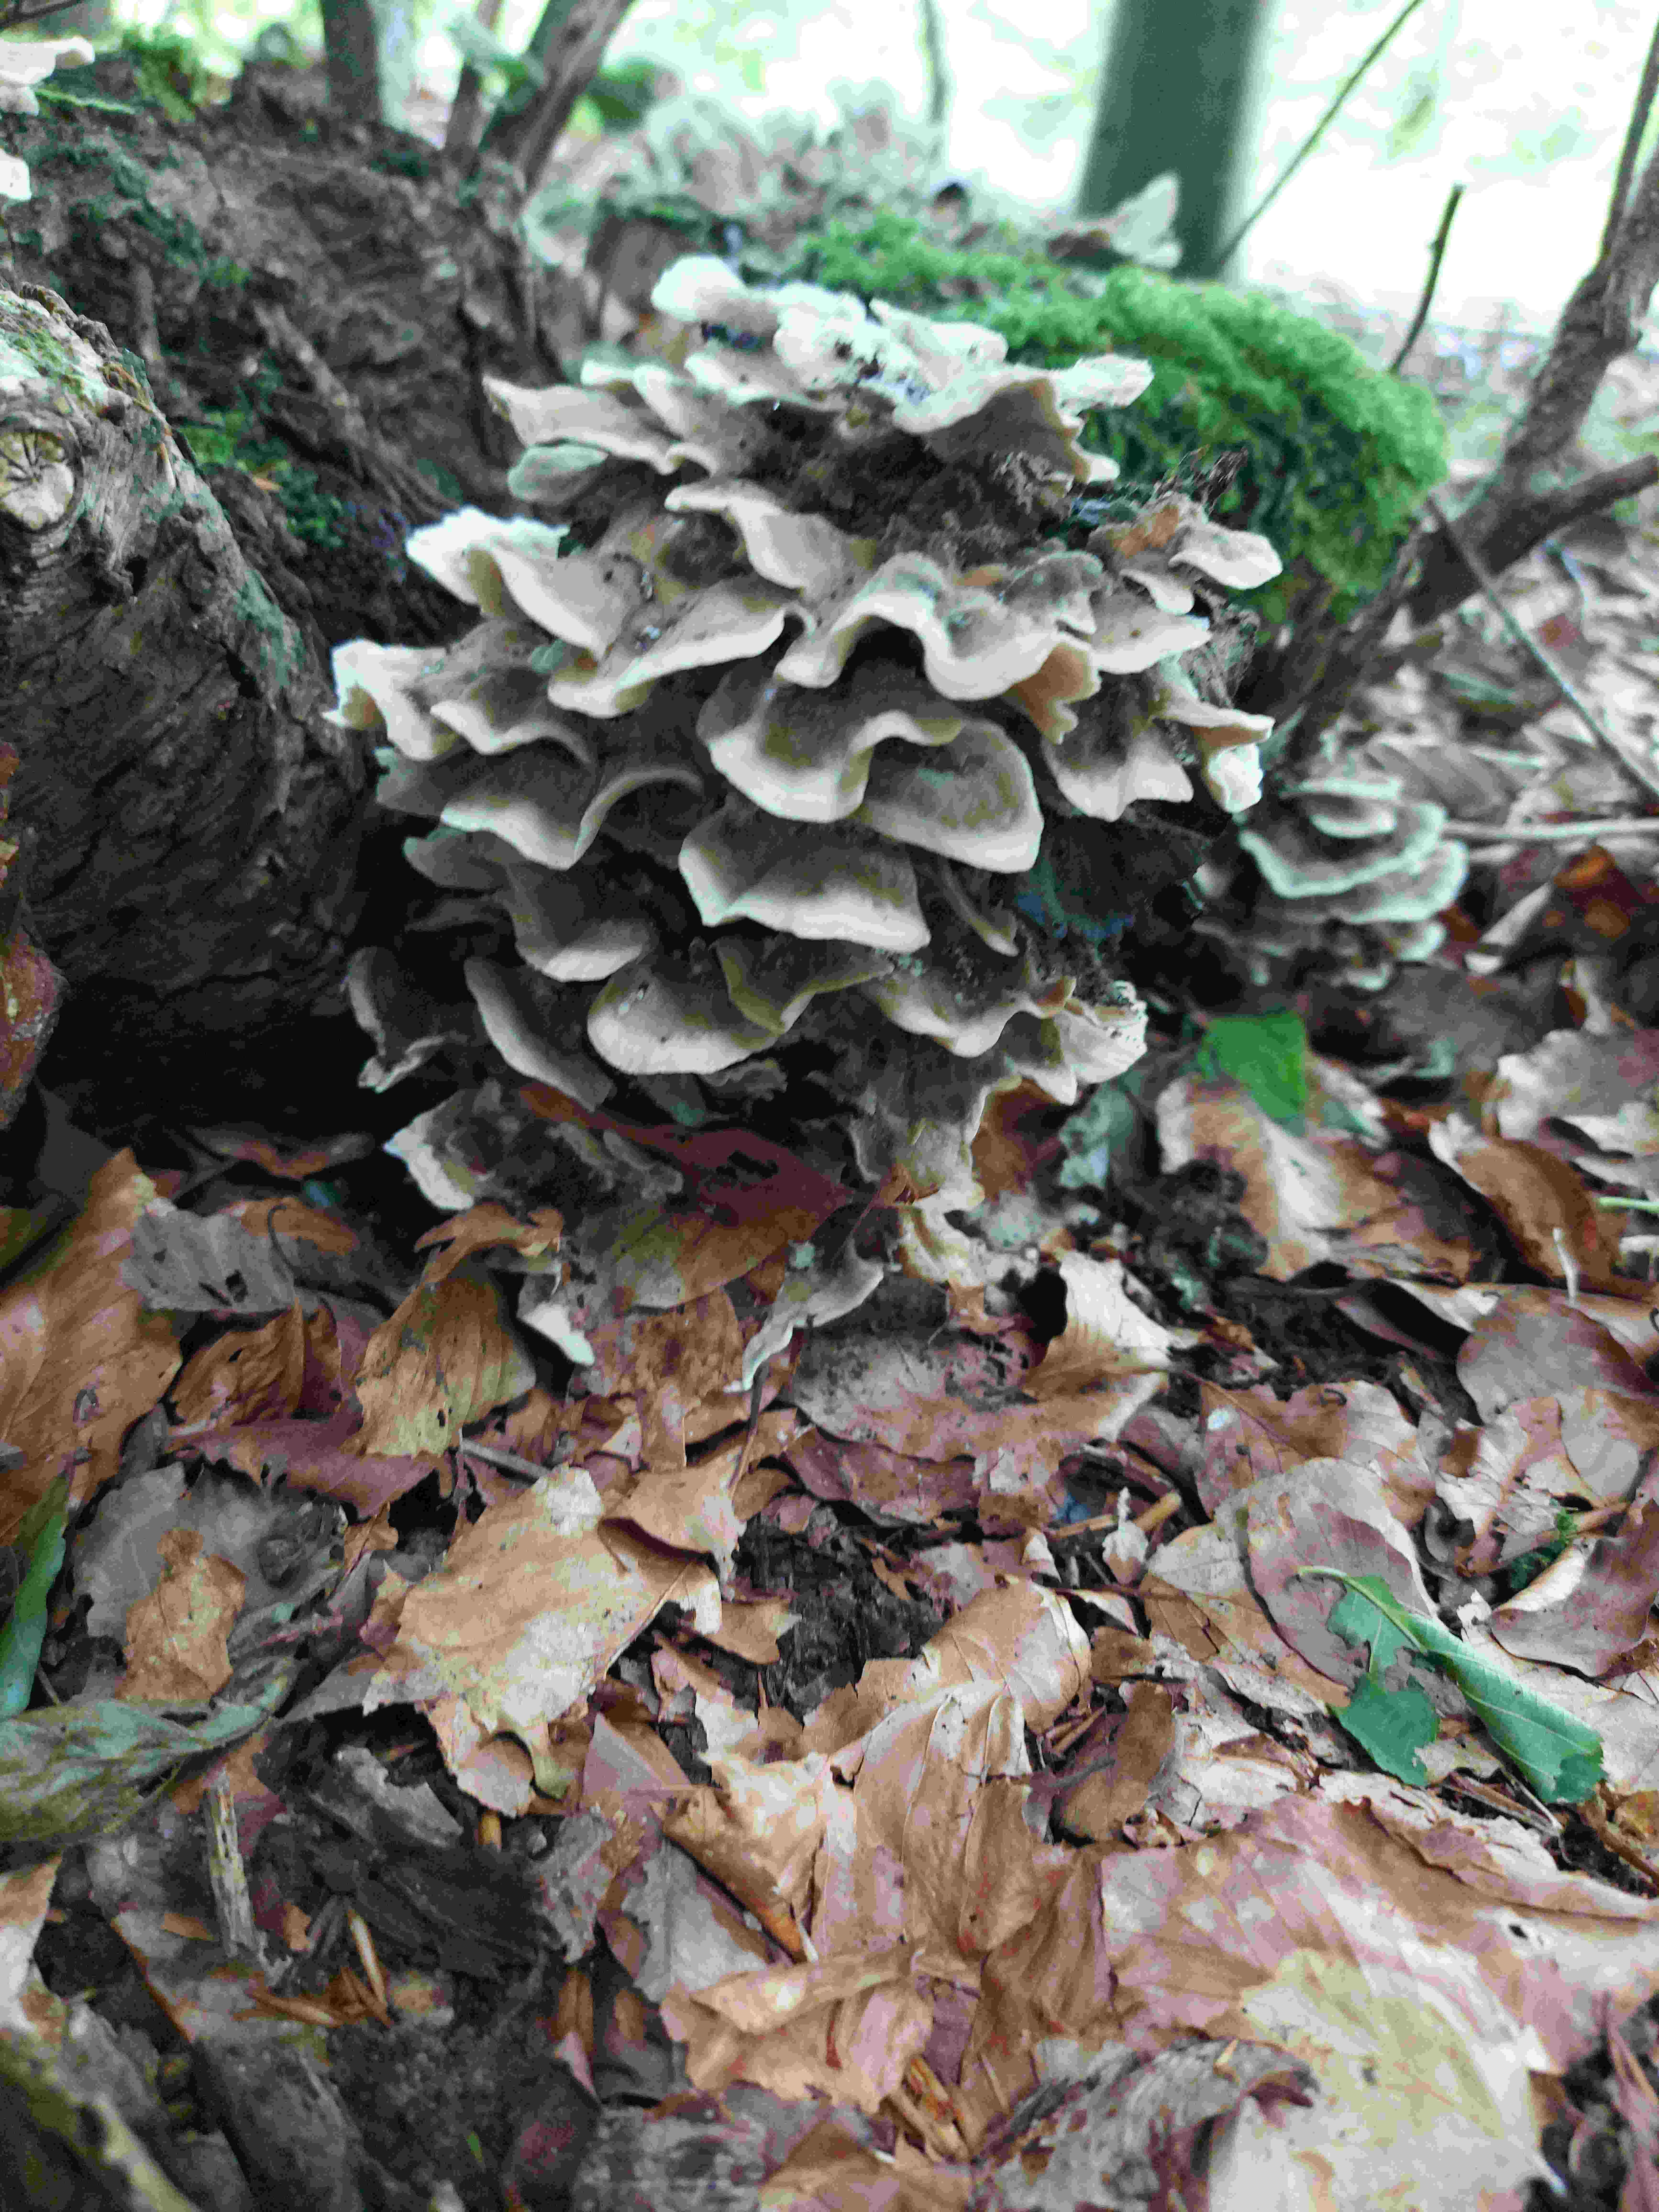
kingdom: Fungi
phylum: Basidiomycota
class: Agaricomycetes
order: Polyporales
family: Phanerochaetaceae
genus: Bjerkandera
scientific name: Bjerkandera adusta
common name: sveden sodporesvamp
